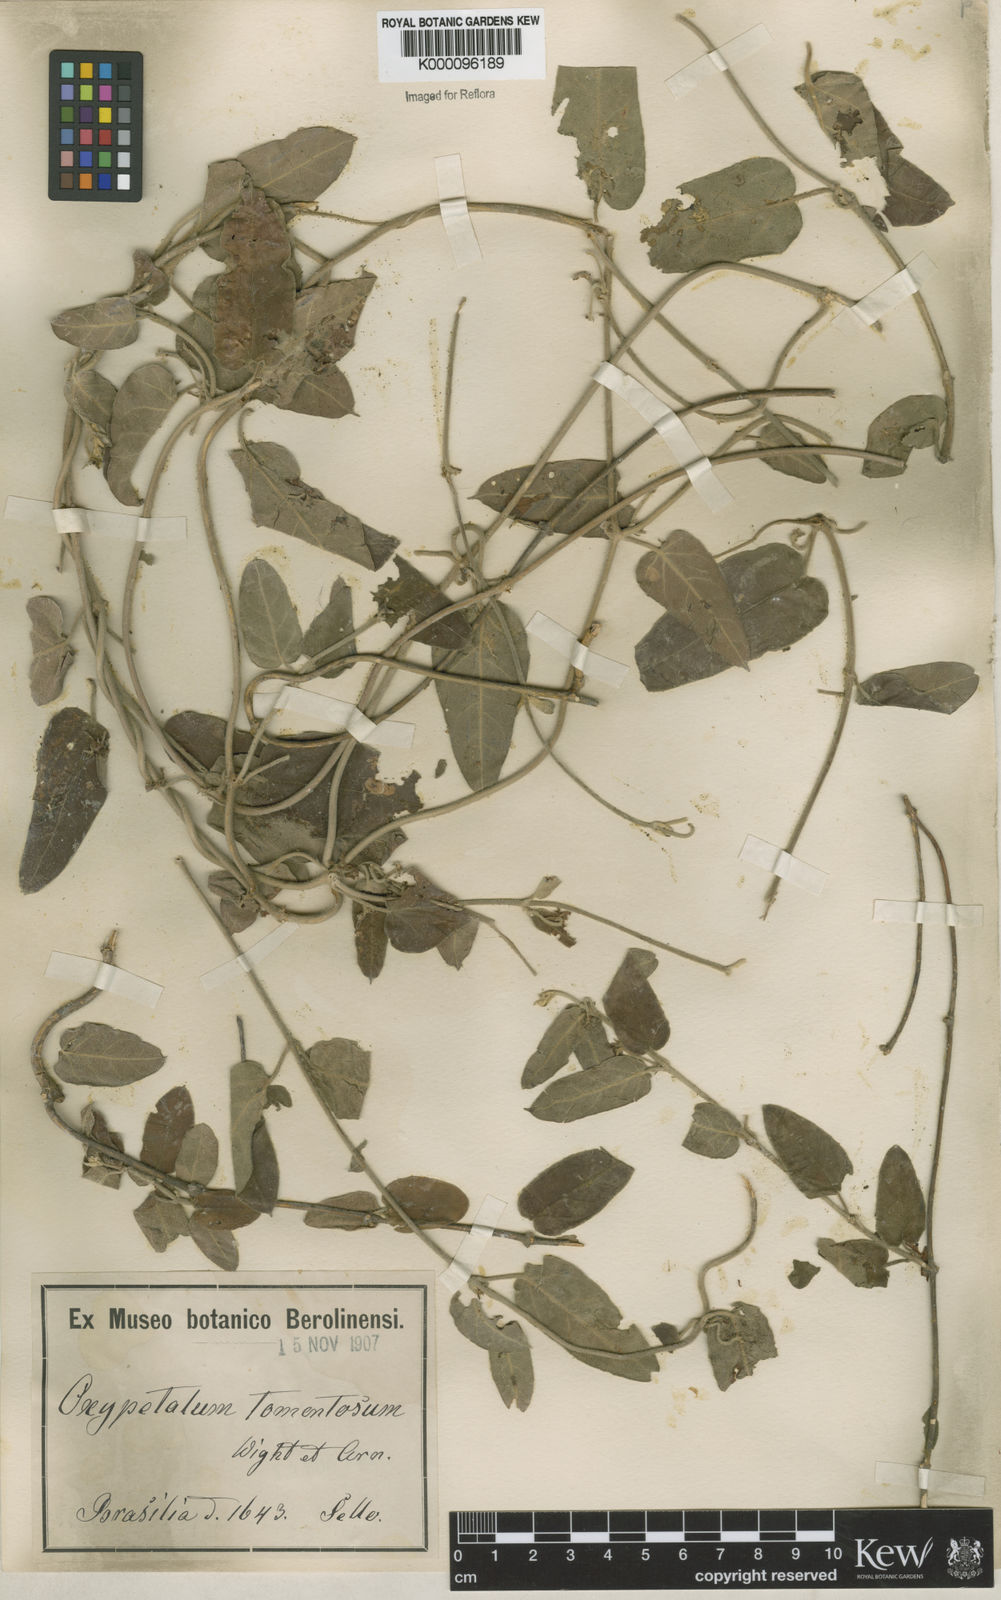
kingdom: Plantae
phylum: Tracheophyta
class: Magnoliopsida
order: Gentianales
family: Apocynaceae
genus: Oxypetalum
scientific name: Oxypetalum tomentosum
